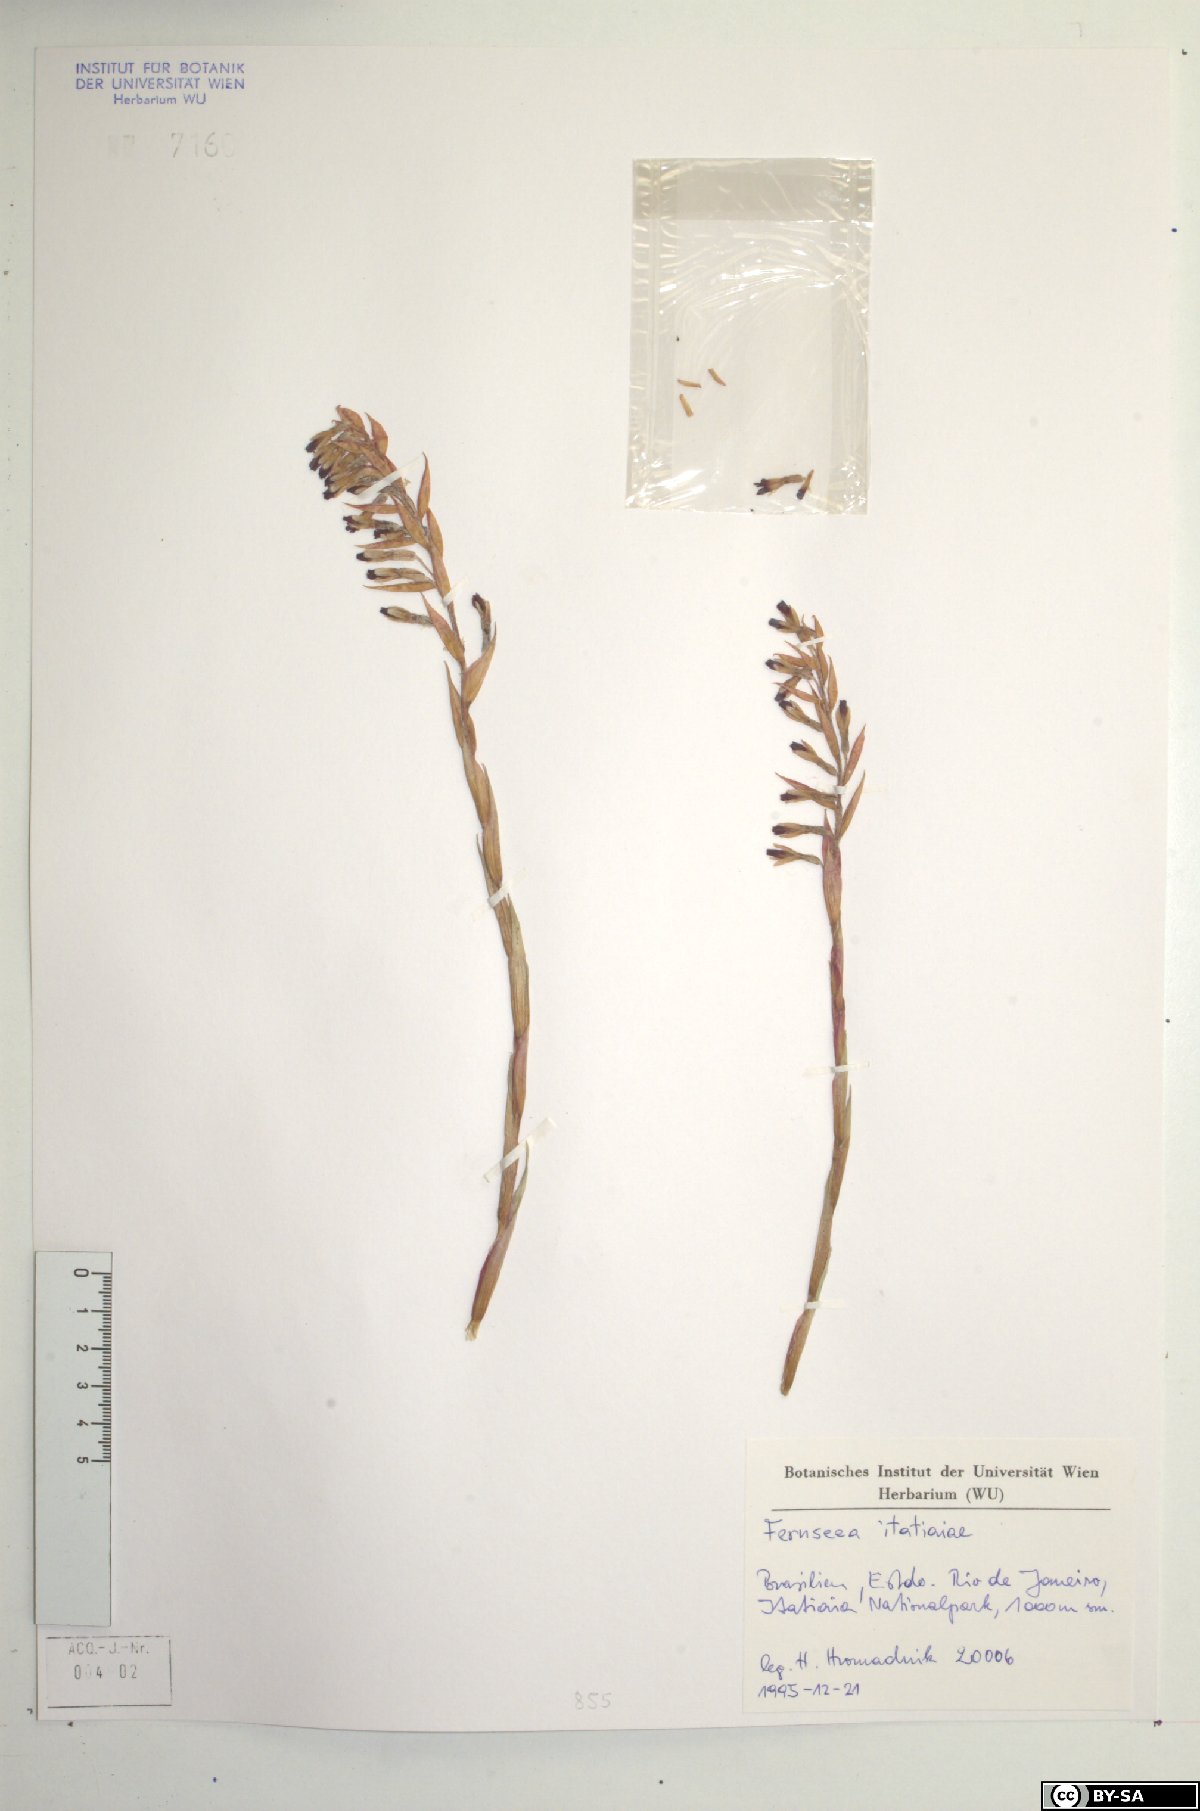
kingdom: Plantae
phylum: Tracheophyta
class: Liliopsida
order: Poales
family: Bromeliaceae
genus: Fernseea
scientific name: Fernseea itatiaiae
